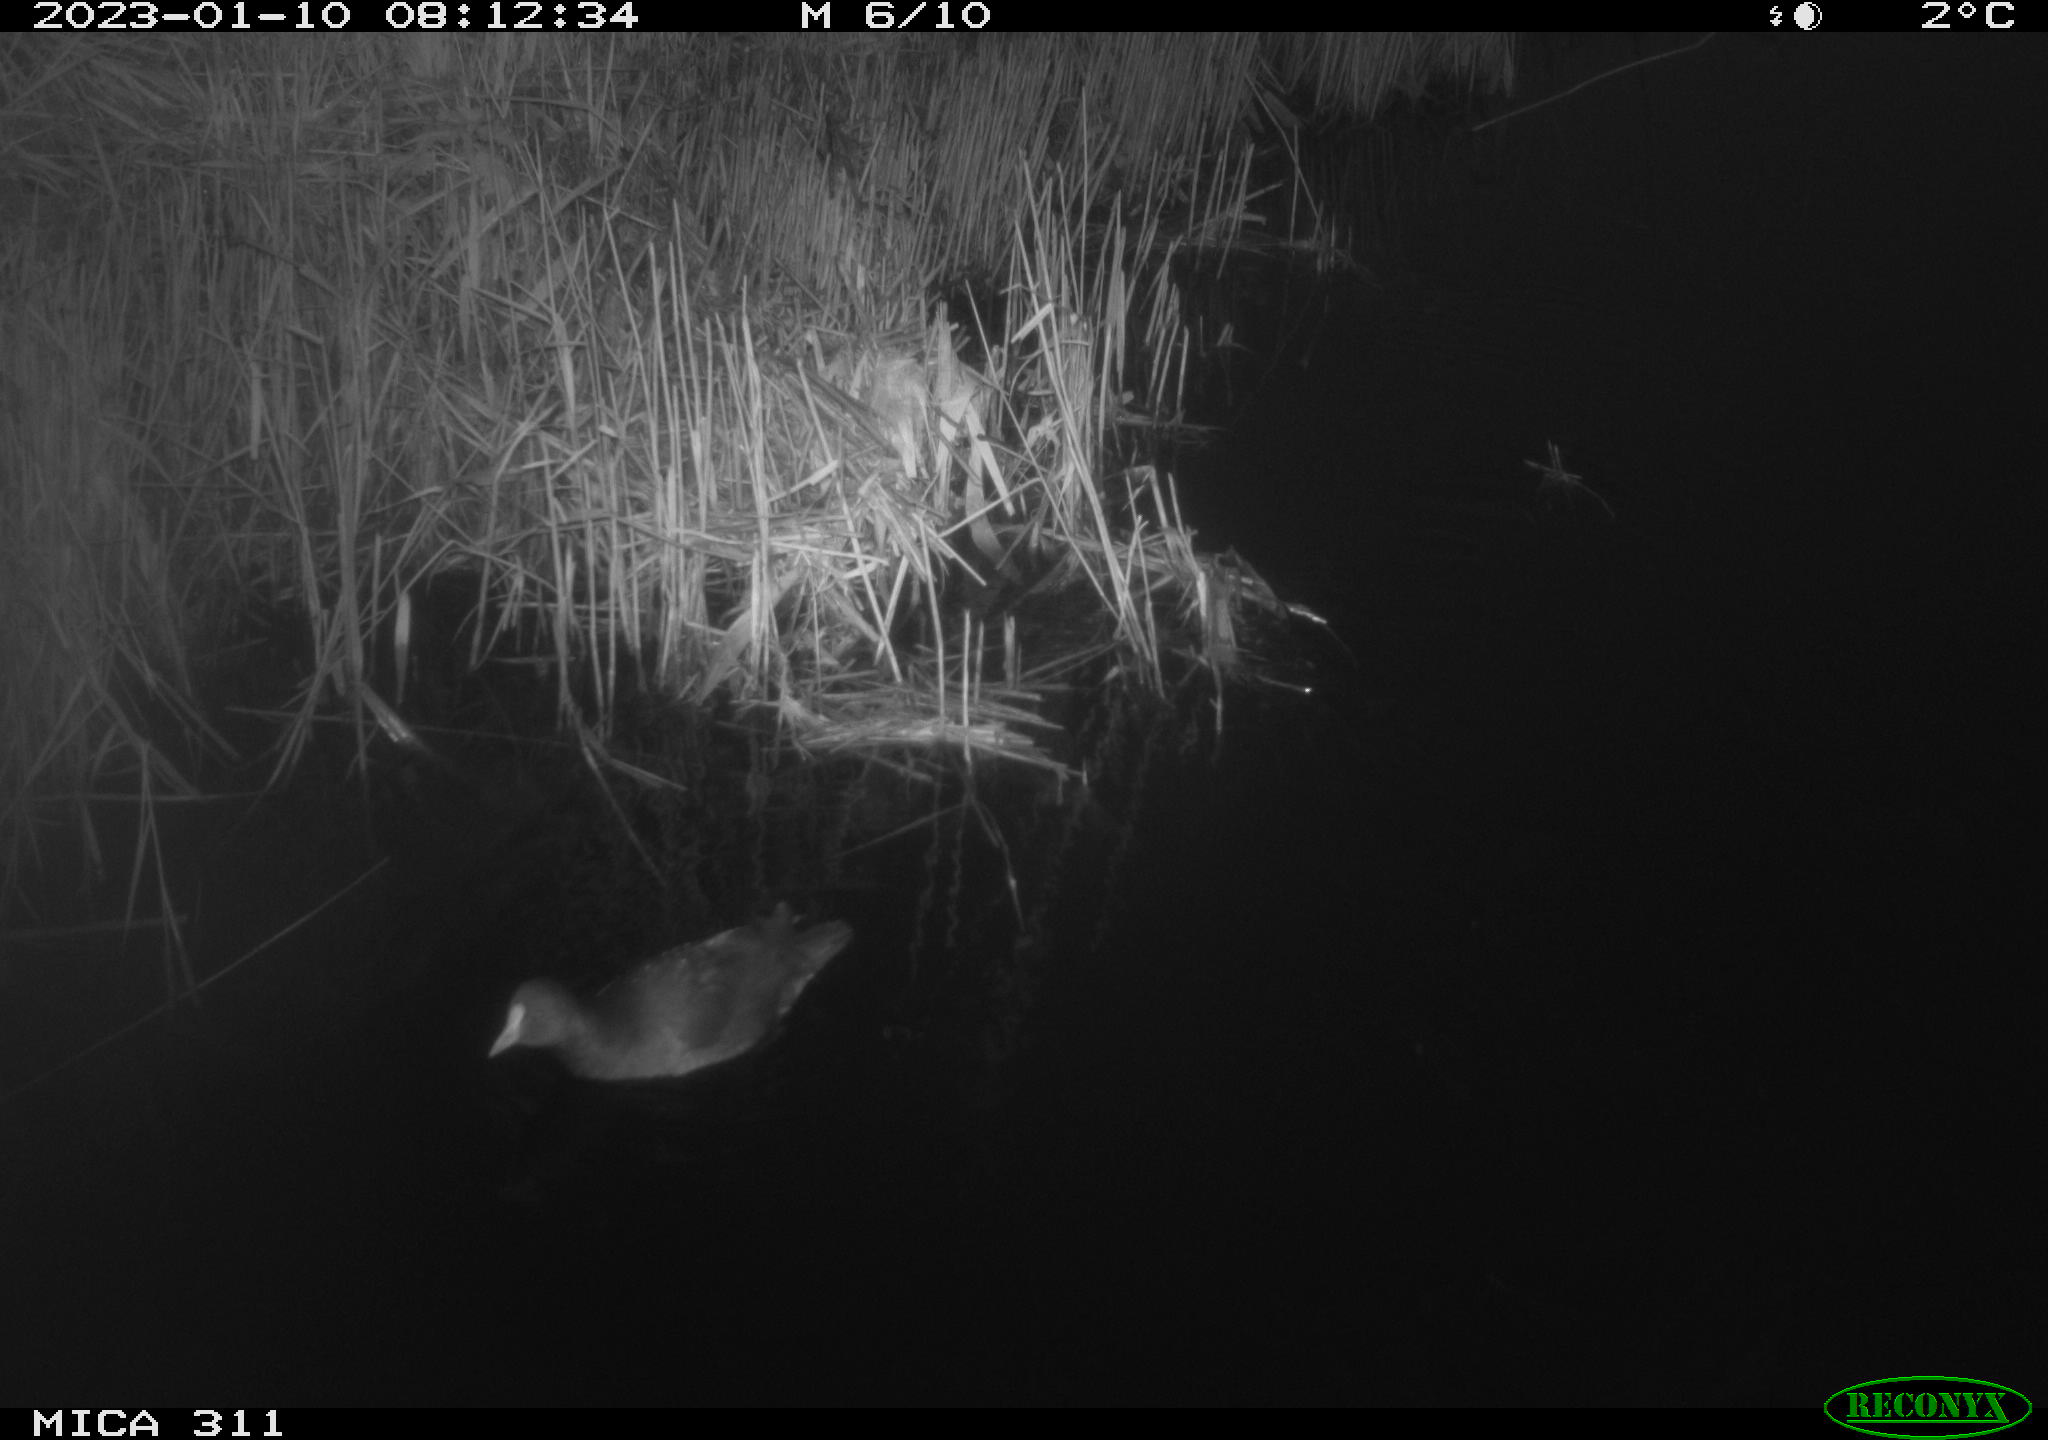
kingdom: Animalia
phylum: Chordata
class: Aves
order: Gruiformes
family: Rallidae
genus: Gallinula
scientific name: Gallinula chloropus
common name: Common moorhen
